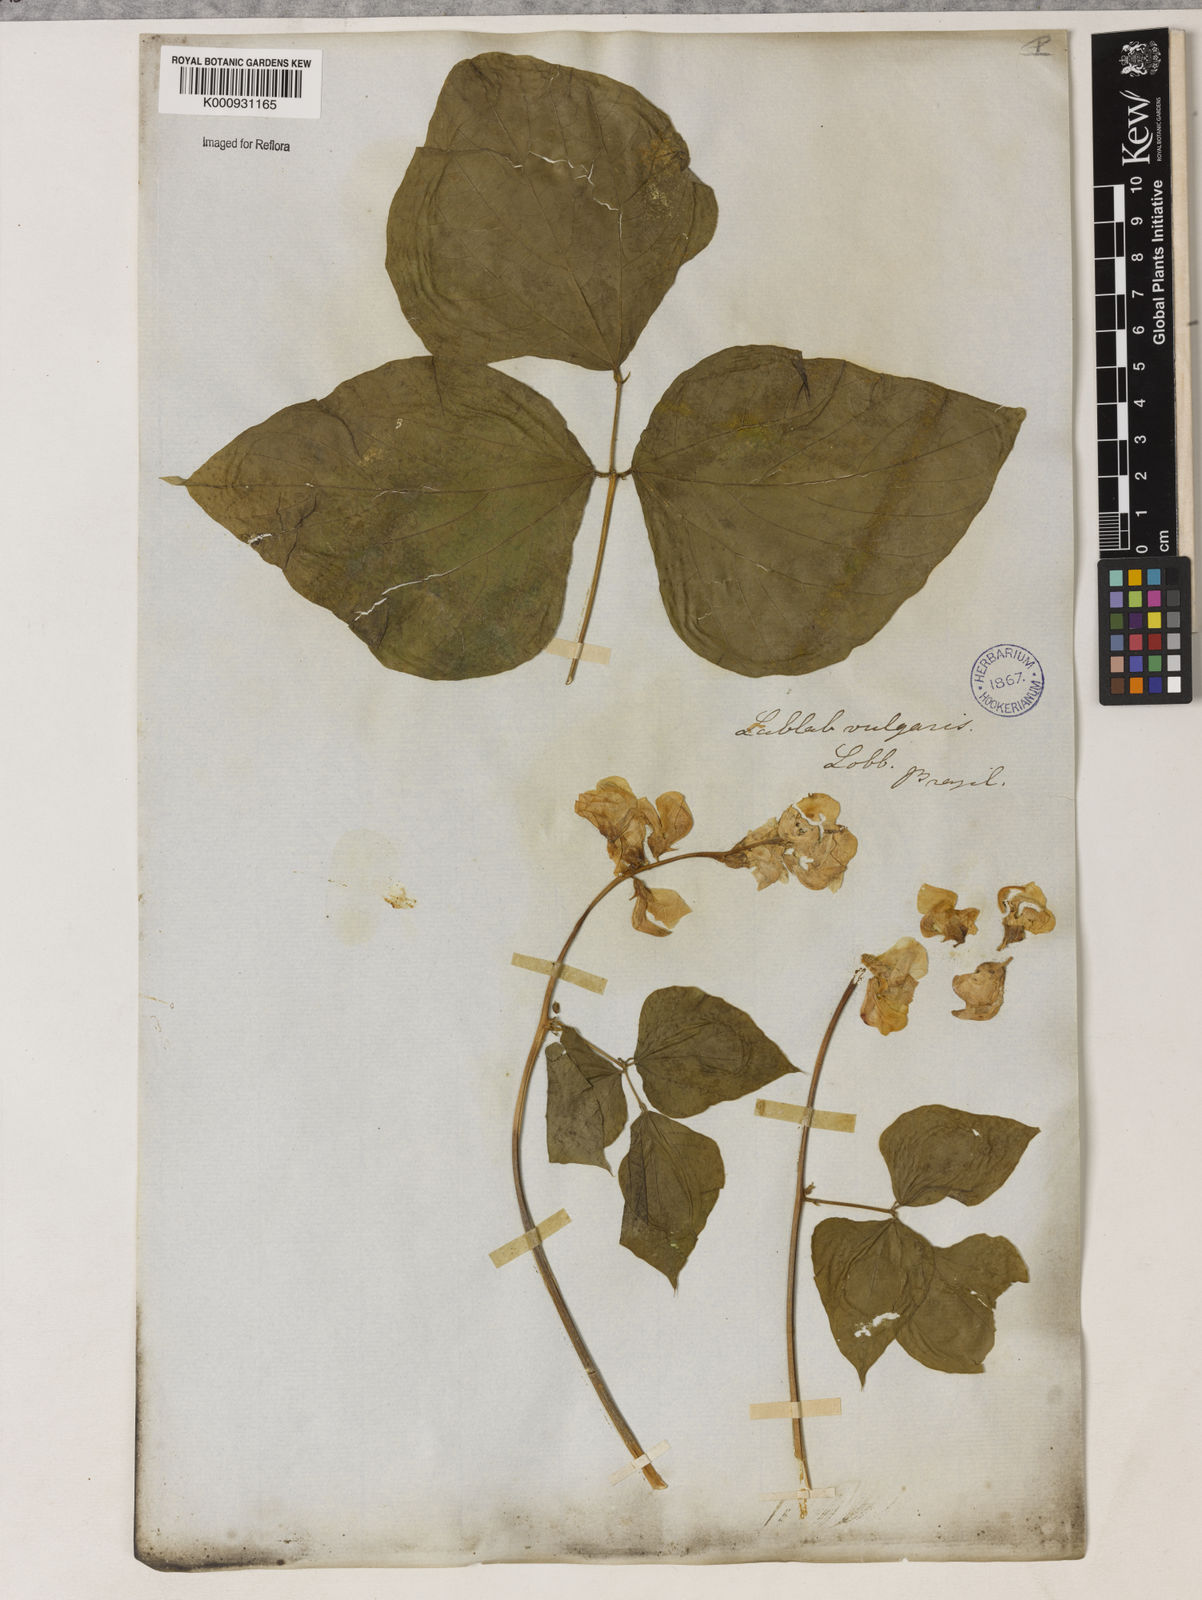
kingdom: Plantae
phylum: Tracheophyta
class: Magnoliopsida
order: Fabales
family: Fabaceae
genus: Lablab
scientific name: Lablab purpureus
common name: Lablab-bean
